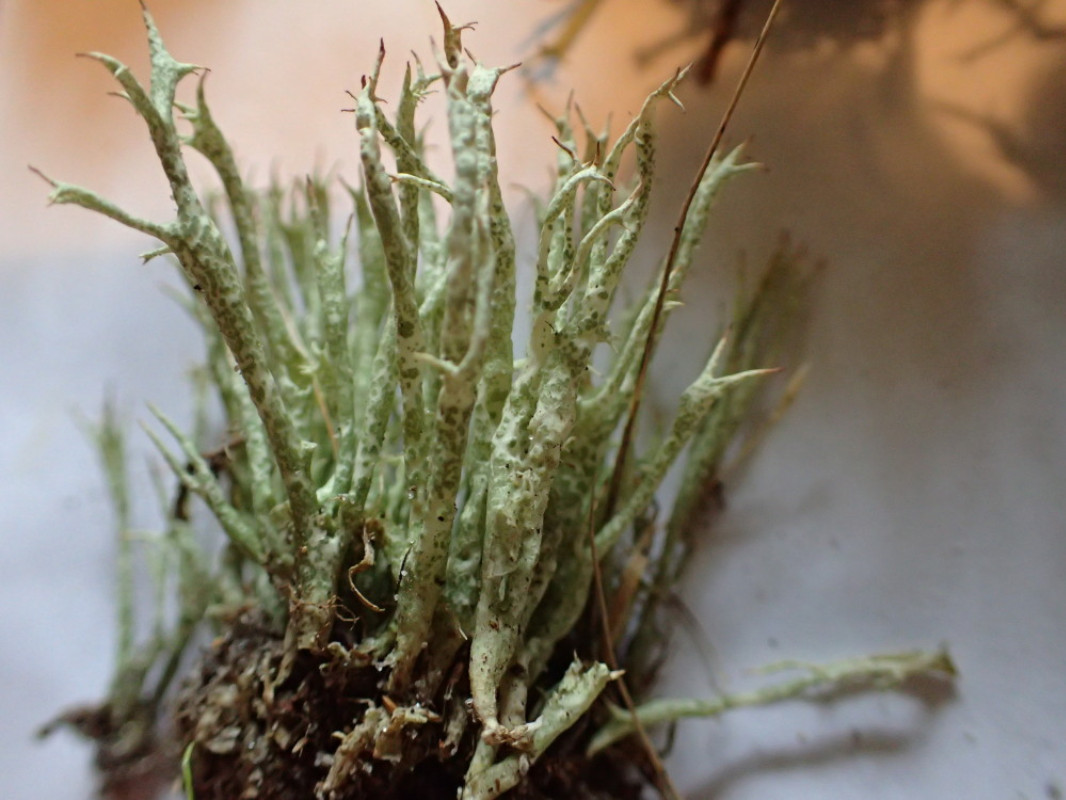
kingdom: Fungi
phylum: Ascomycota
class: Lecanoromycetes
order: Lecanorales
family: Cladoniaceae
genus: Cladonia
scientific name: Cladonia uncialis
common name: pigget bægerlav
